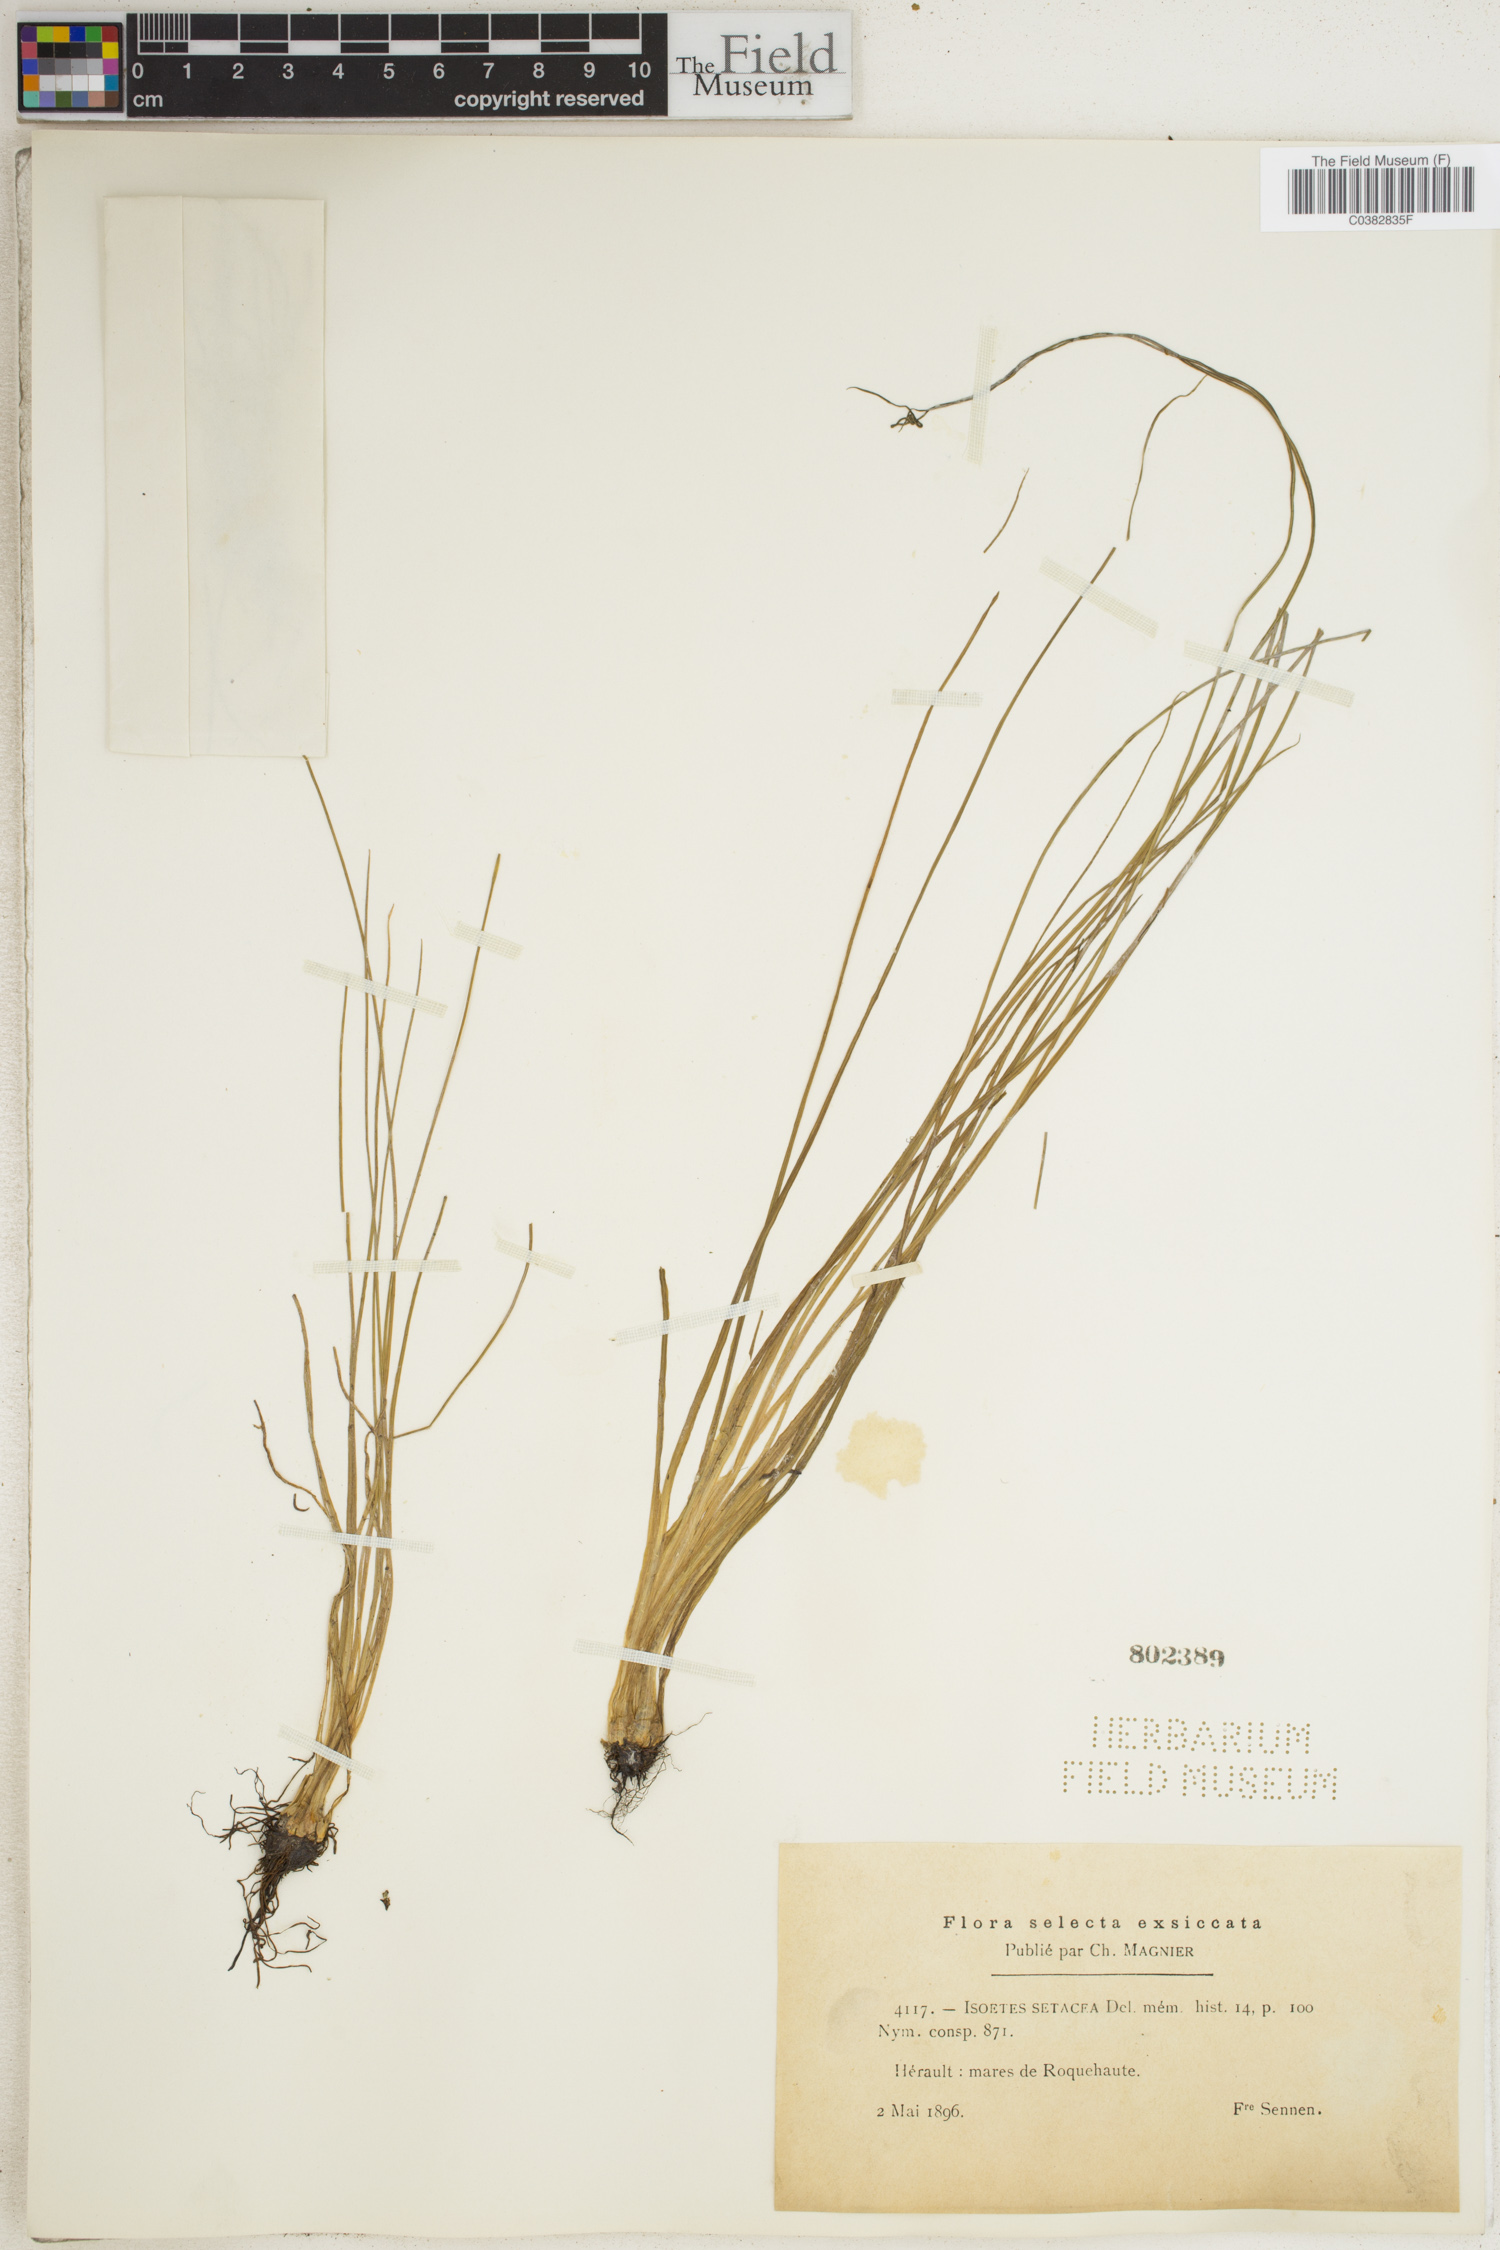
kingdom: Plantae
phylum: Tracheophyta
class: Lycopodiopsida
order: Isoetales
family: Isoetaceae
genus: Isoetes
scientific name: Isoetes lacustris
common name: Common quillwort
